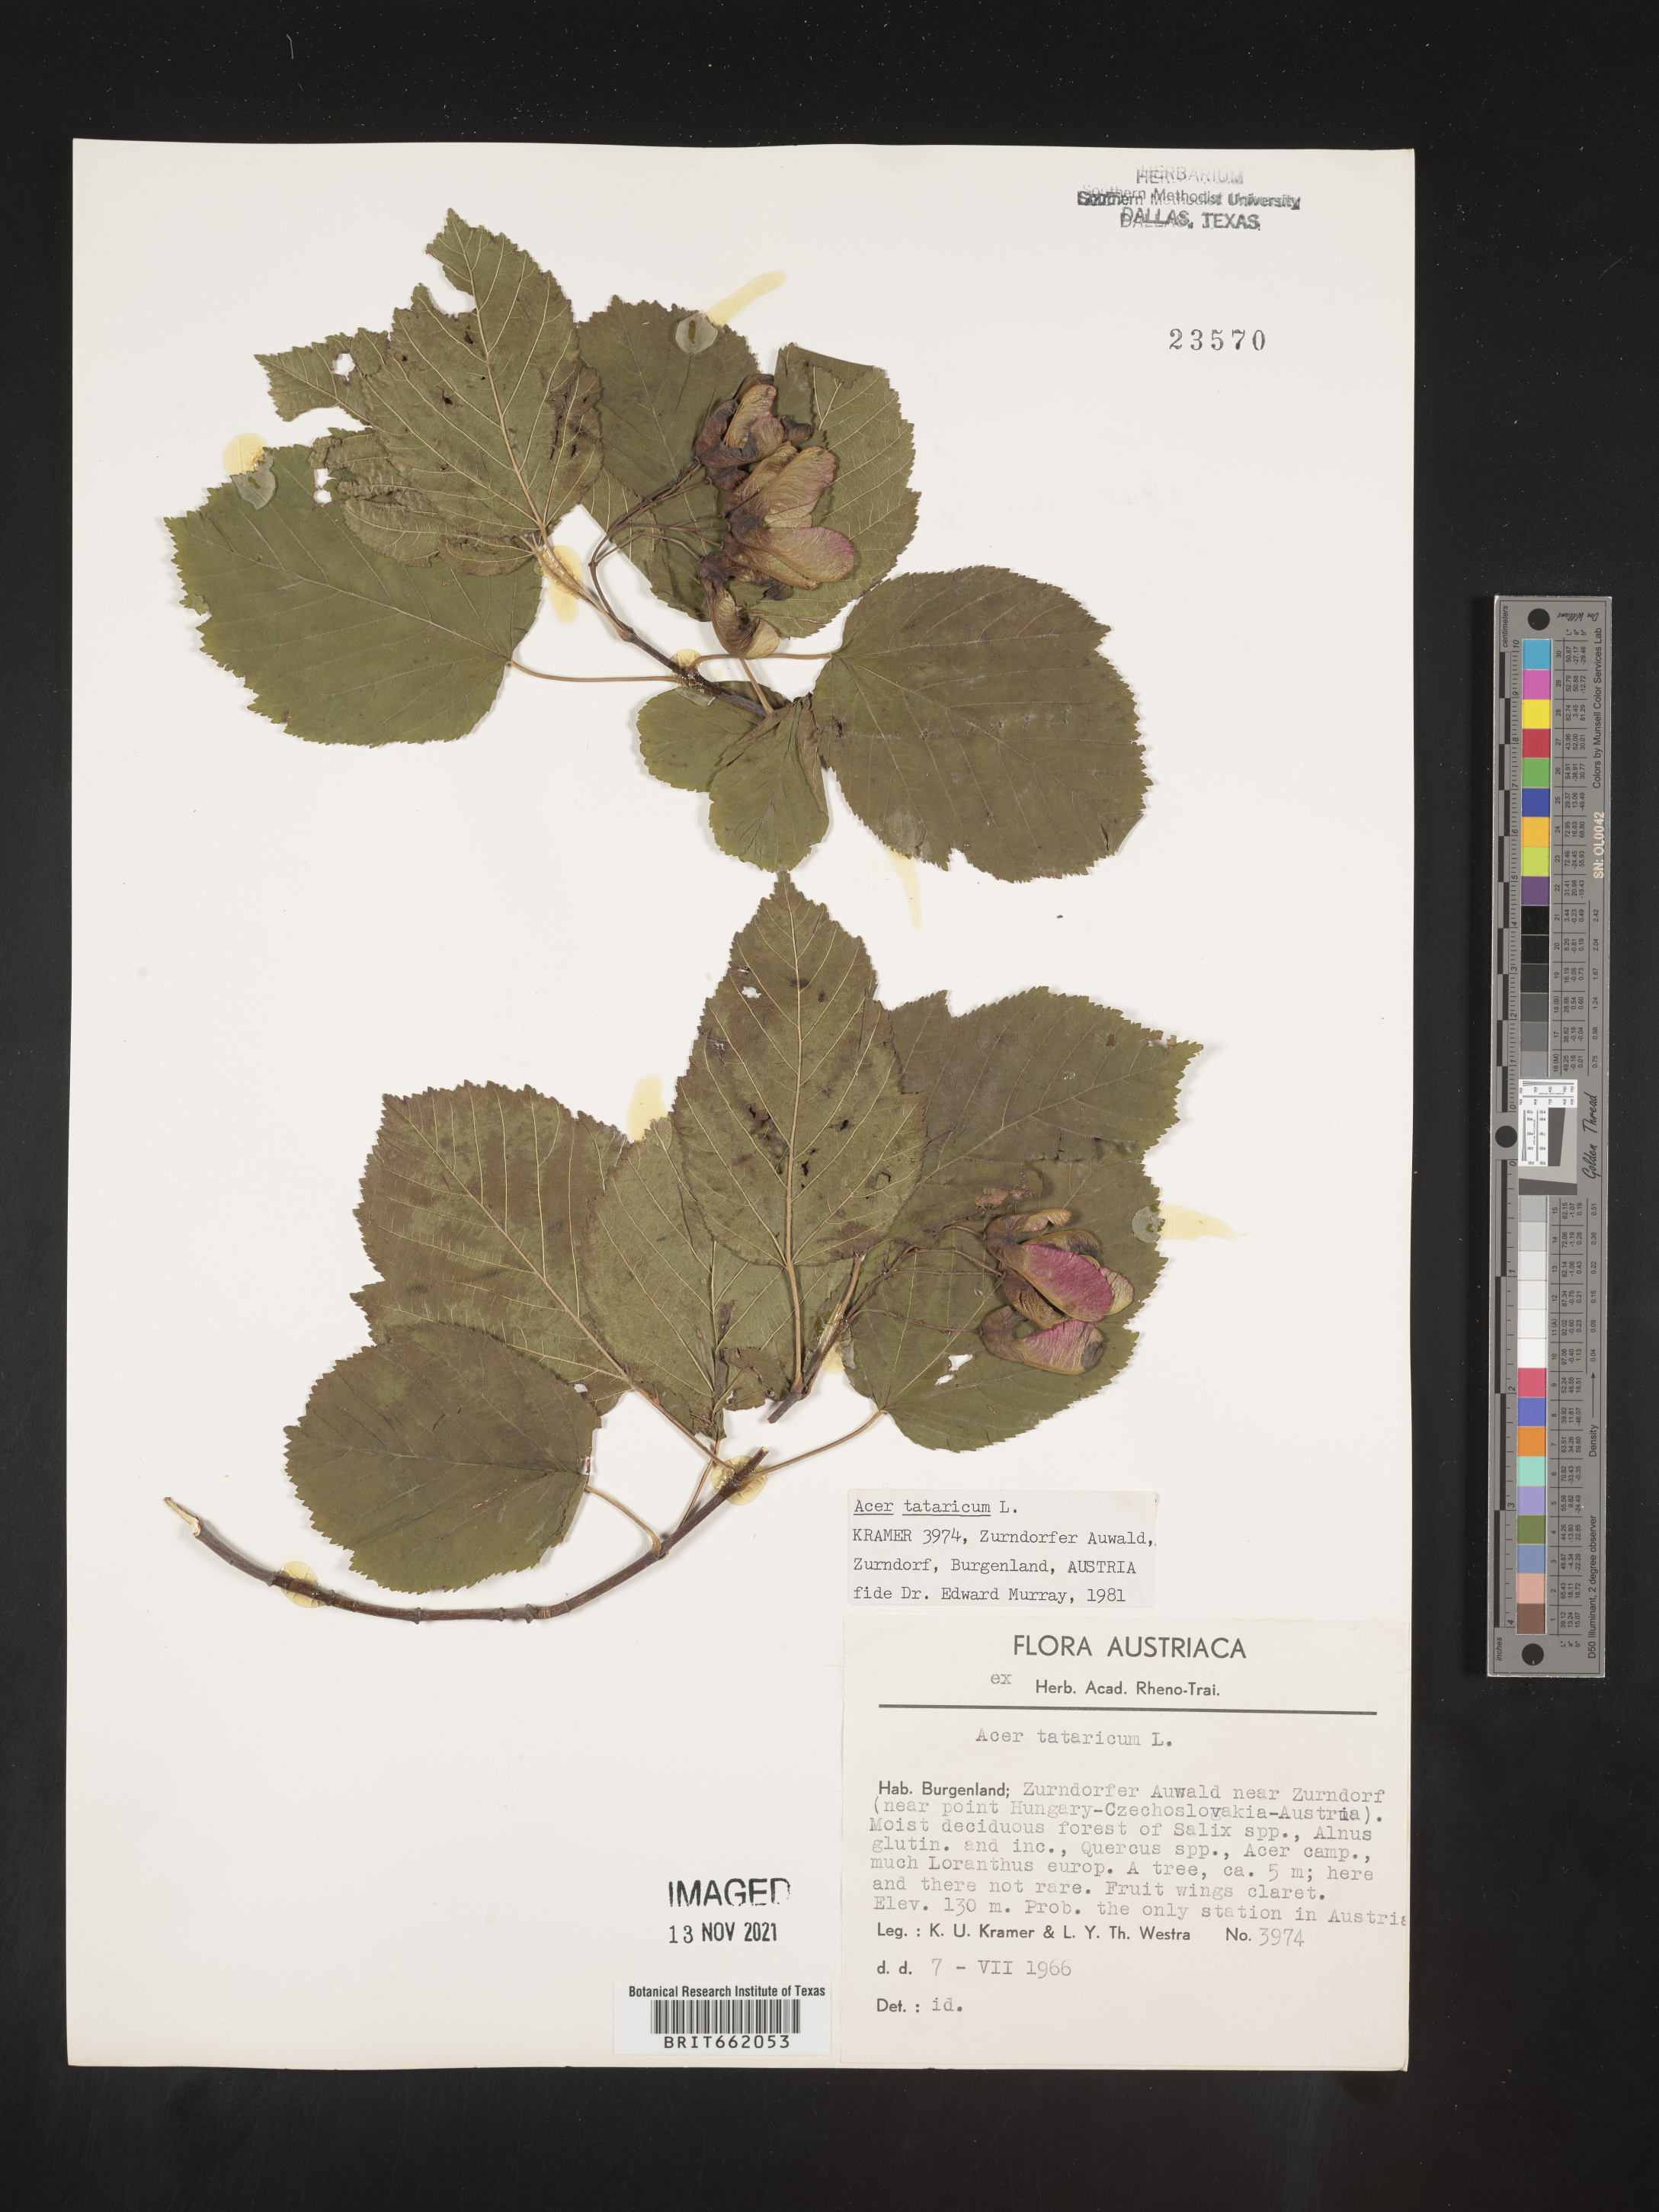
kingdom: Plantae
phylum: Tracheophyta
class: Magnoliopsida
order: Sapindales
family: Sapindaceae
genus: Acer
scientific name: Acer
